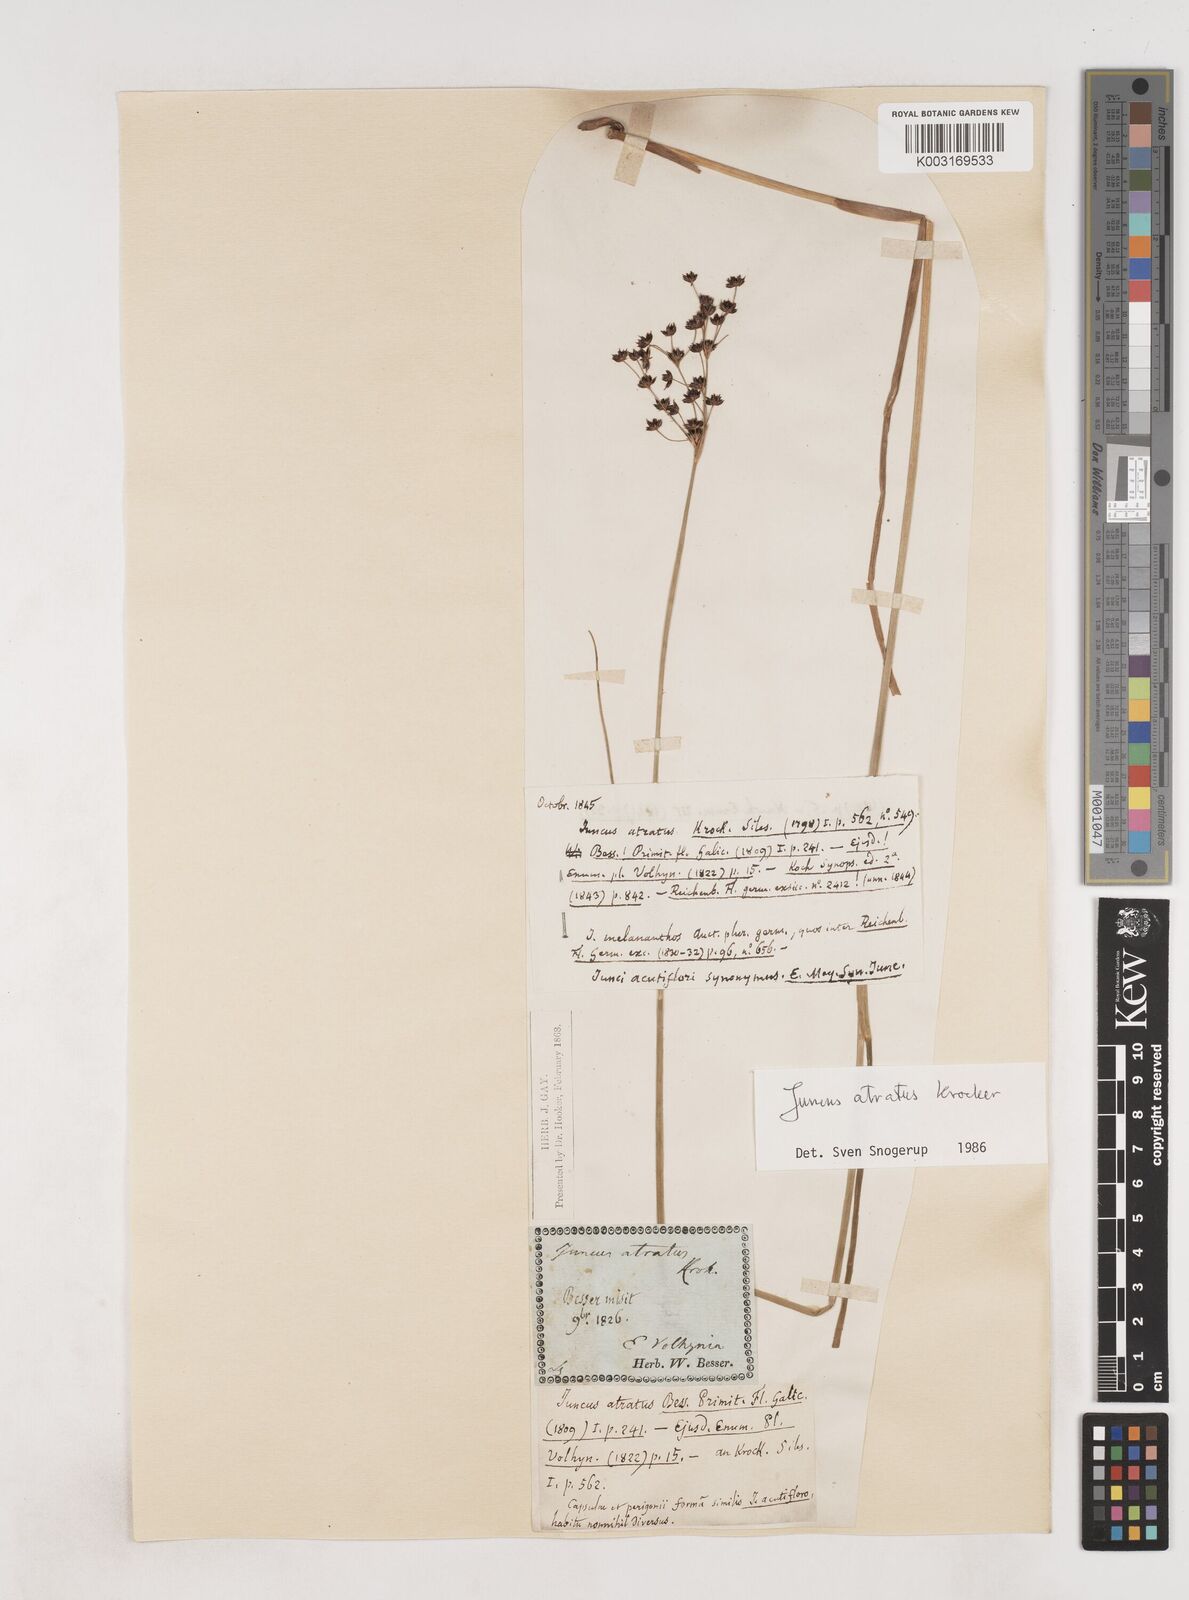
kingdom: Plantae
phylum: Tracheophyta
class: Liliopsida
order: Poales
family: Juncaceae
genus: Juncus
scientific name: Juncus atratus
